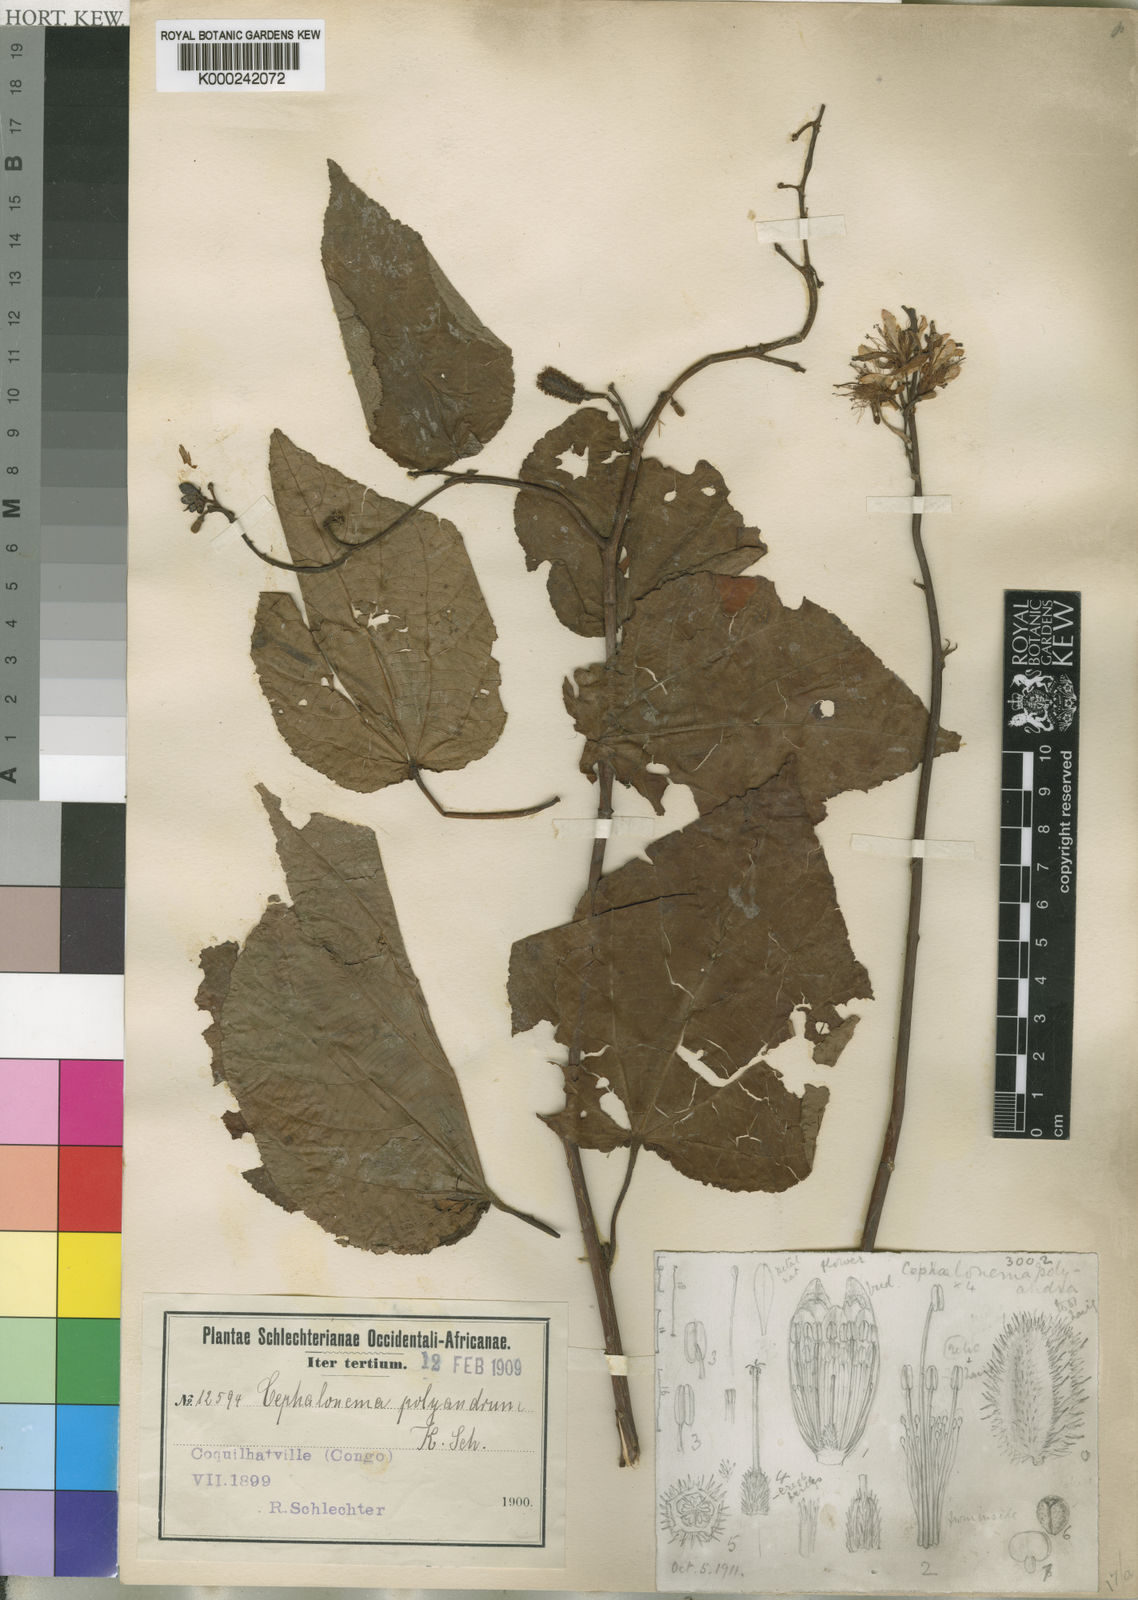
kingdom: Plantae
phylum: Tracheophyta
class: Magnoliopsida
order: Malvales
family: Tiliaceae
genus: Cephalonema
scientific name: Cephalonema
